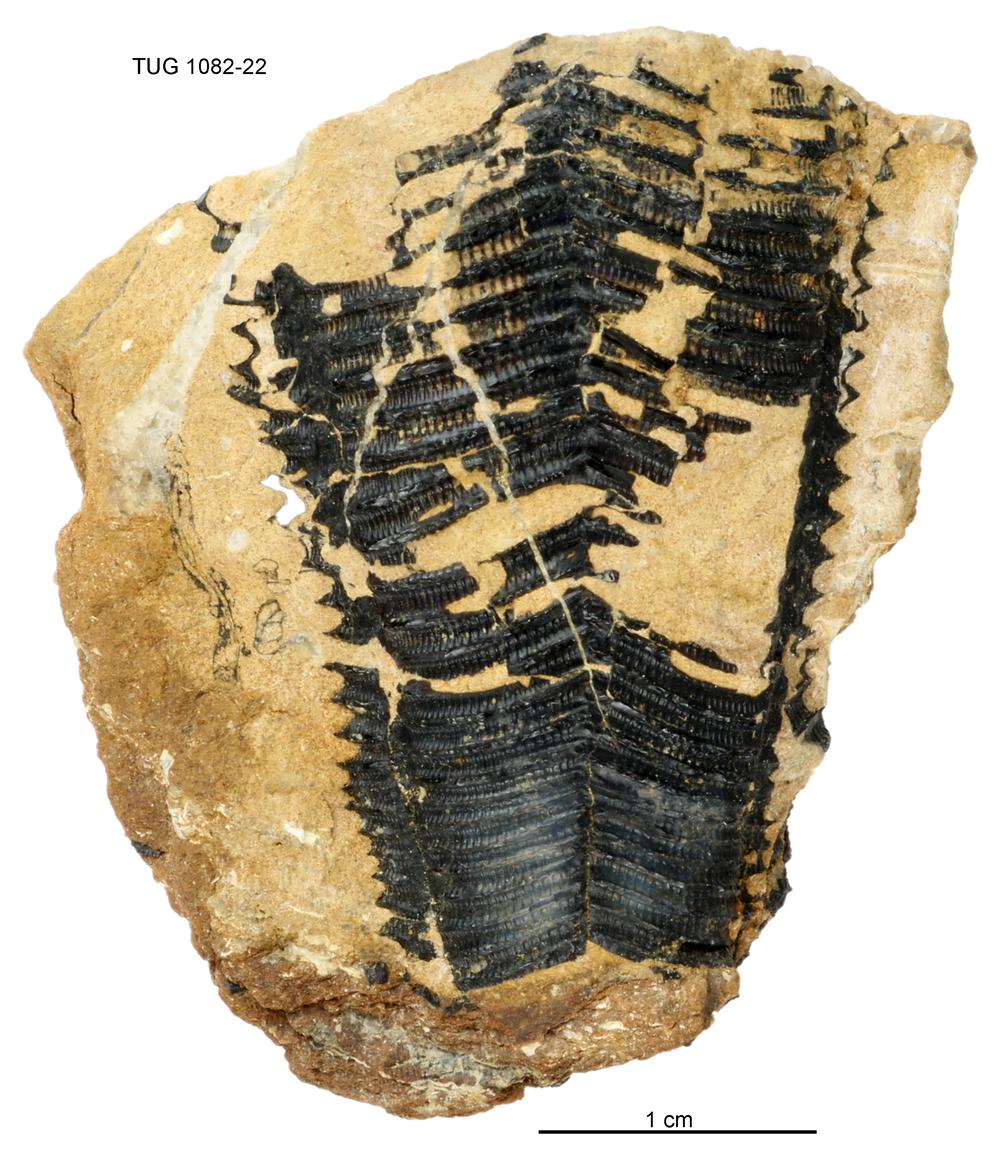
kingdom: Animalia
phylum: Cnidaria
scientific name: Cnidaria
